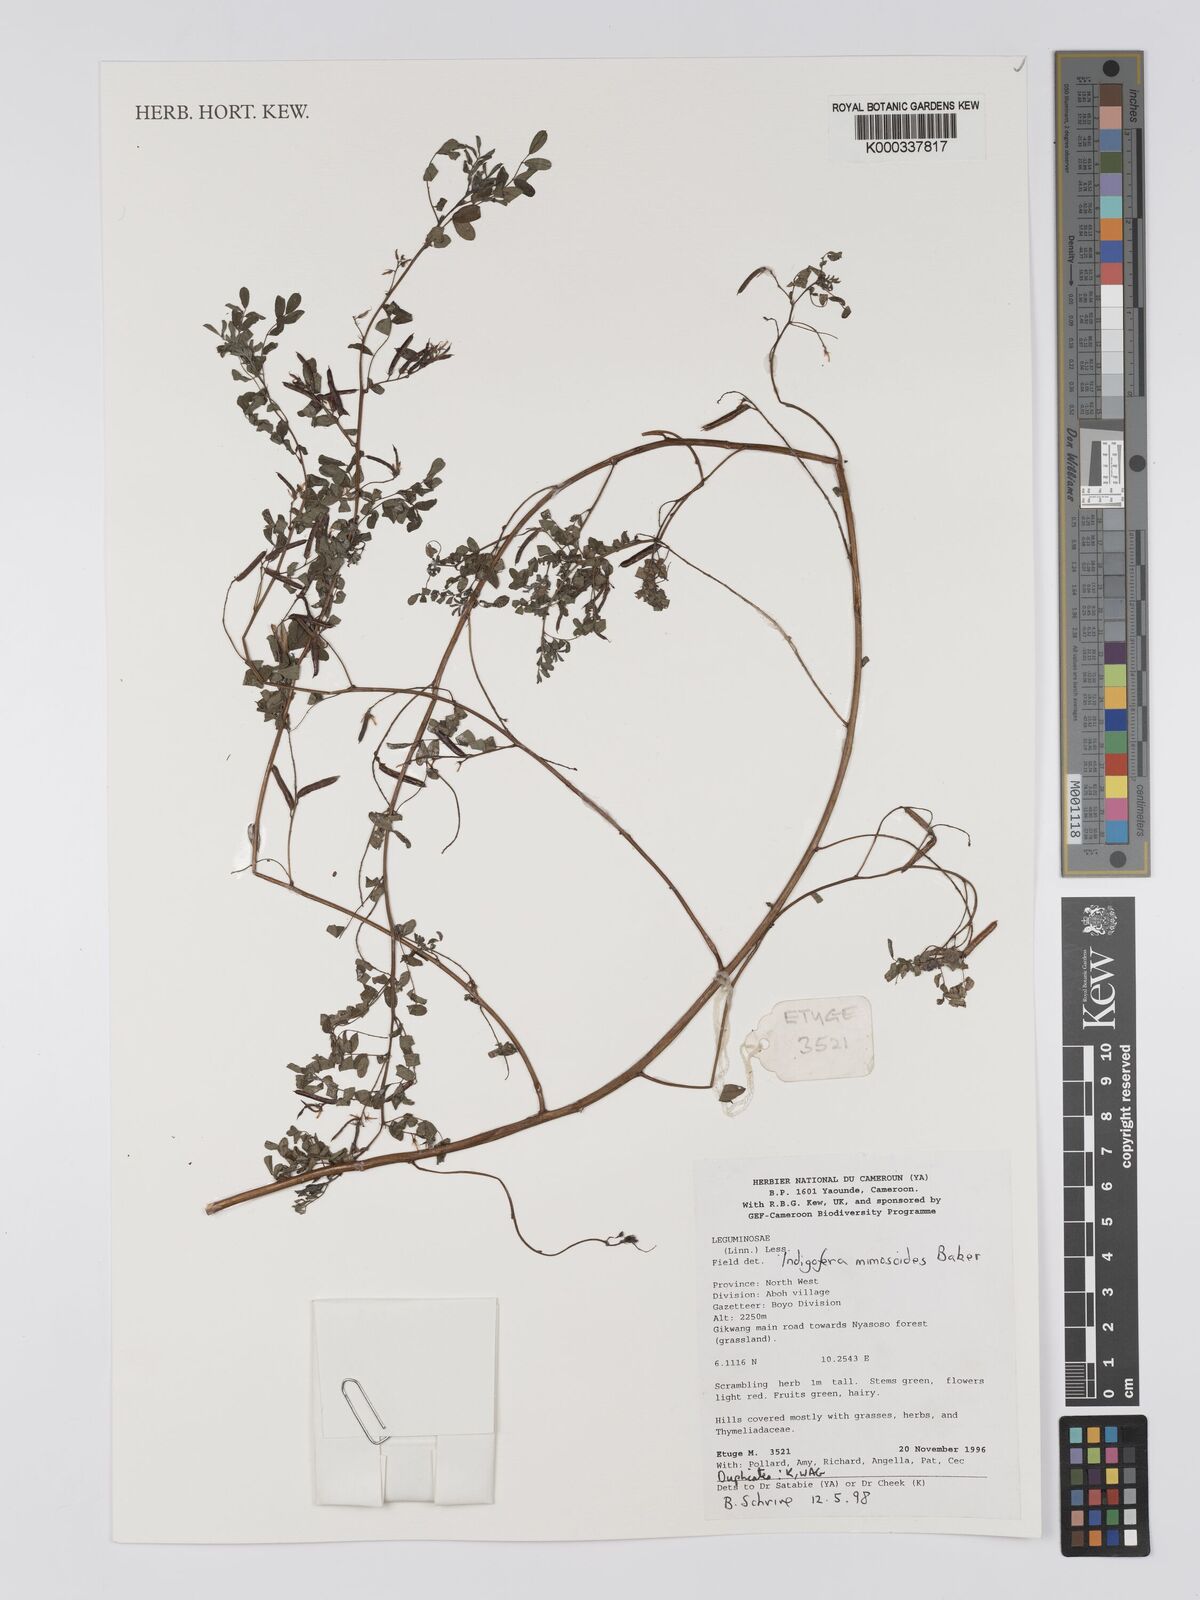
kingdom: Plantae
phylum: Tracheophyta
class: Magnoliopsida
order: Fabales
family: Fabaceae
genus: Indigofera
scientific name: Indigofera mimosoides
